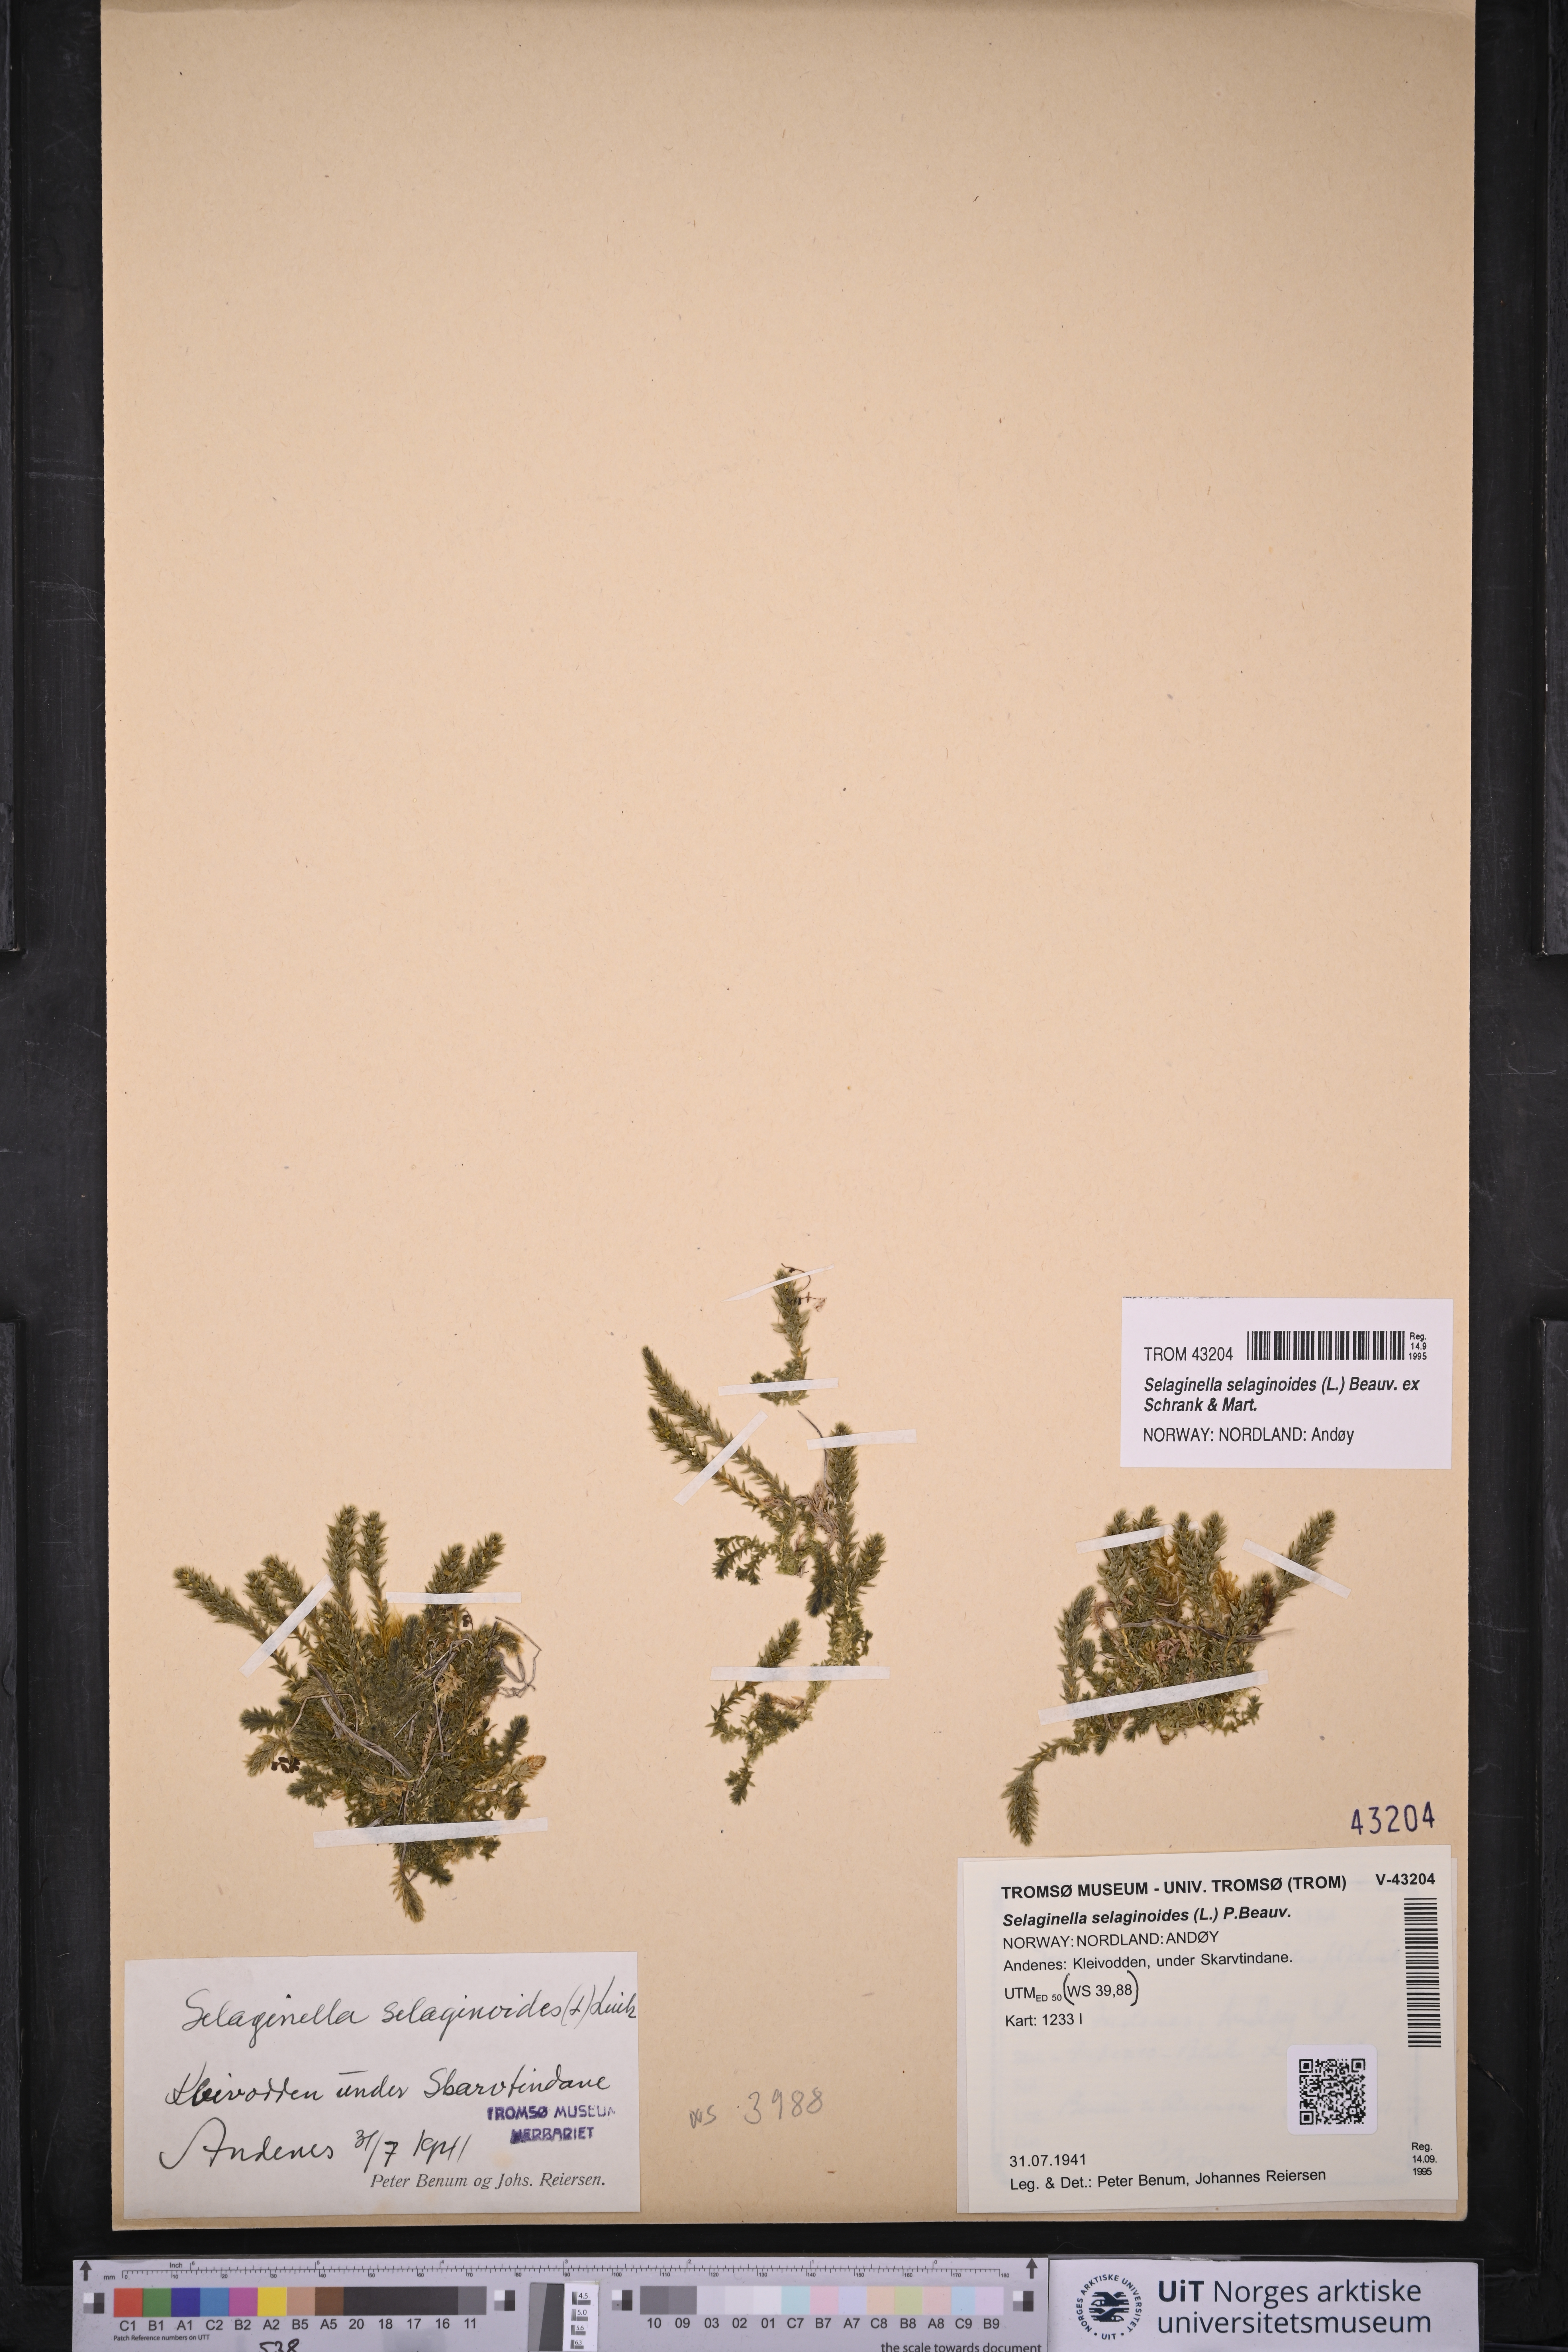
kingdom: Plantae
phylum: Tracheophyta
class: Lycopodiopsida
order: Selaginellales
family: Selaginellaceae
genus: Selaginella
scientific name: Selaginella selaginoides
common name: Prickly mountain-moss
